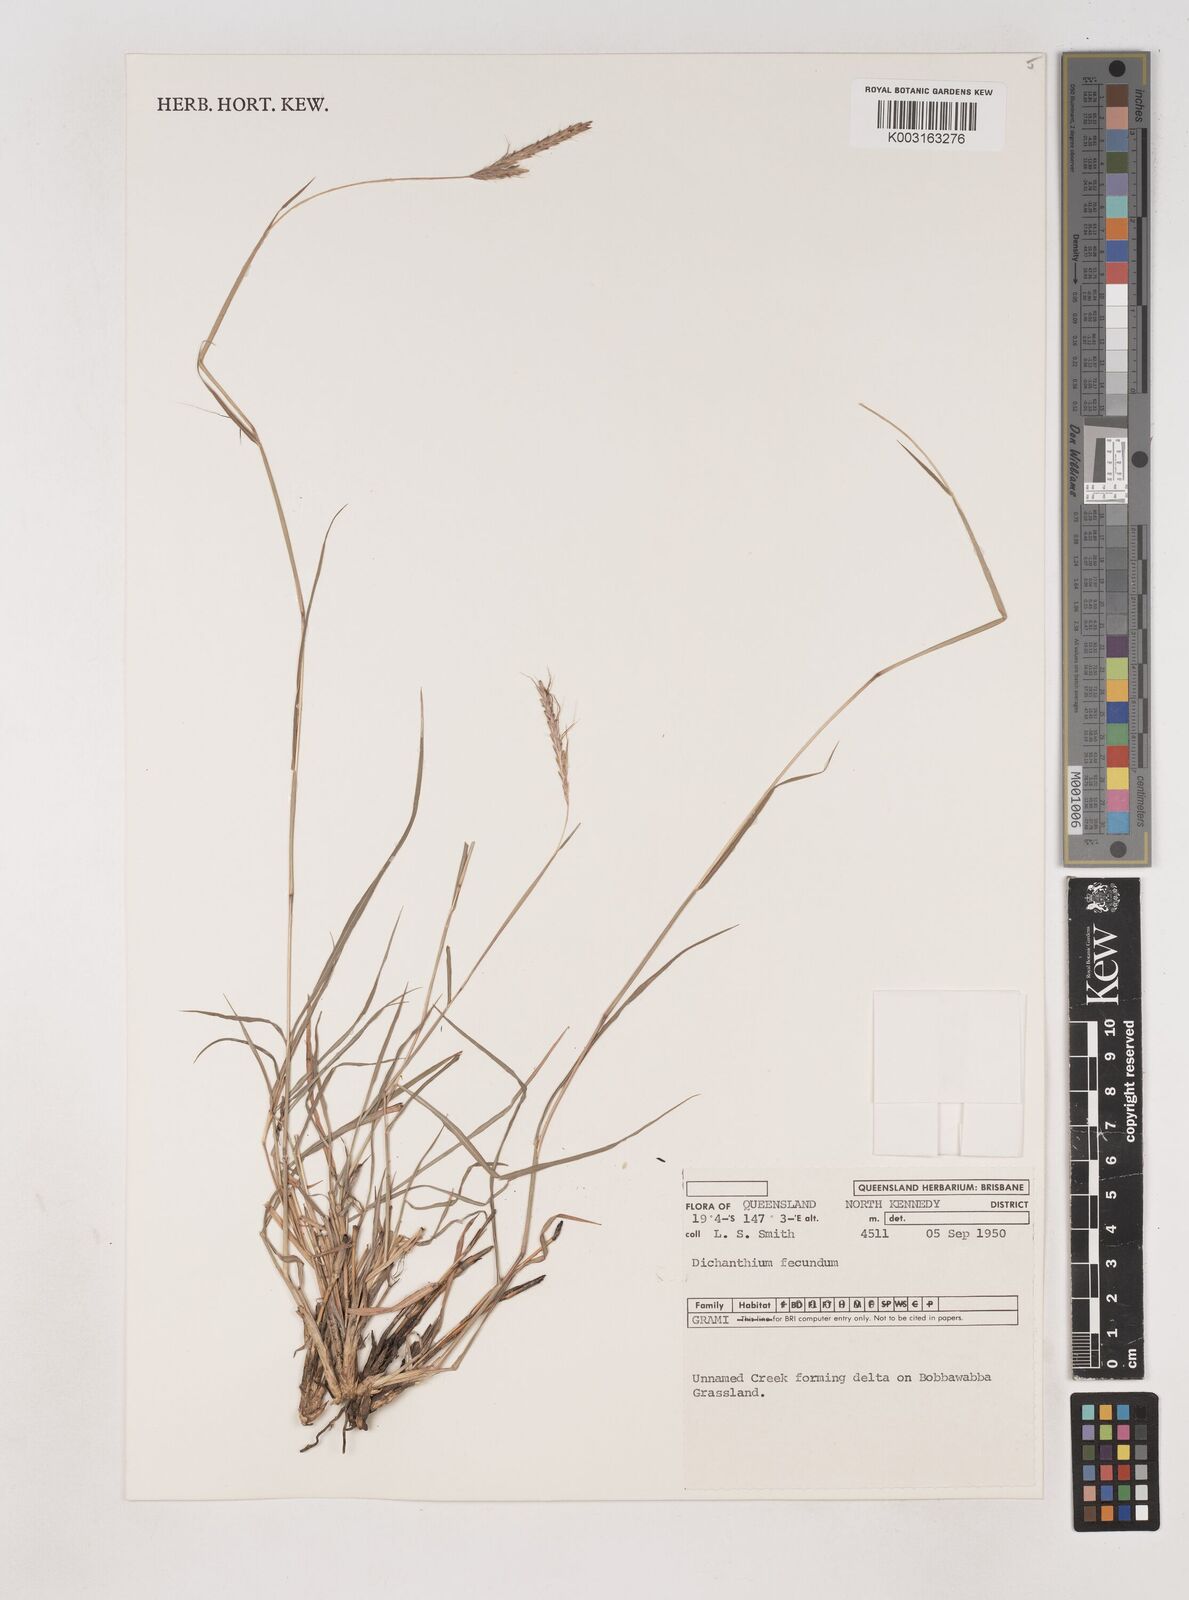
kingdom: Plantae
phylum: Tracheophyta
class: Liliopsida
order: Poales
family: Poaceae
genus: Dichanthium
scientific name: Dichanthium fecundum
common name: Bundle-bundle
